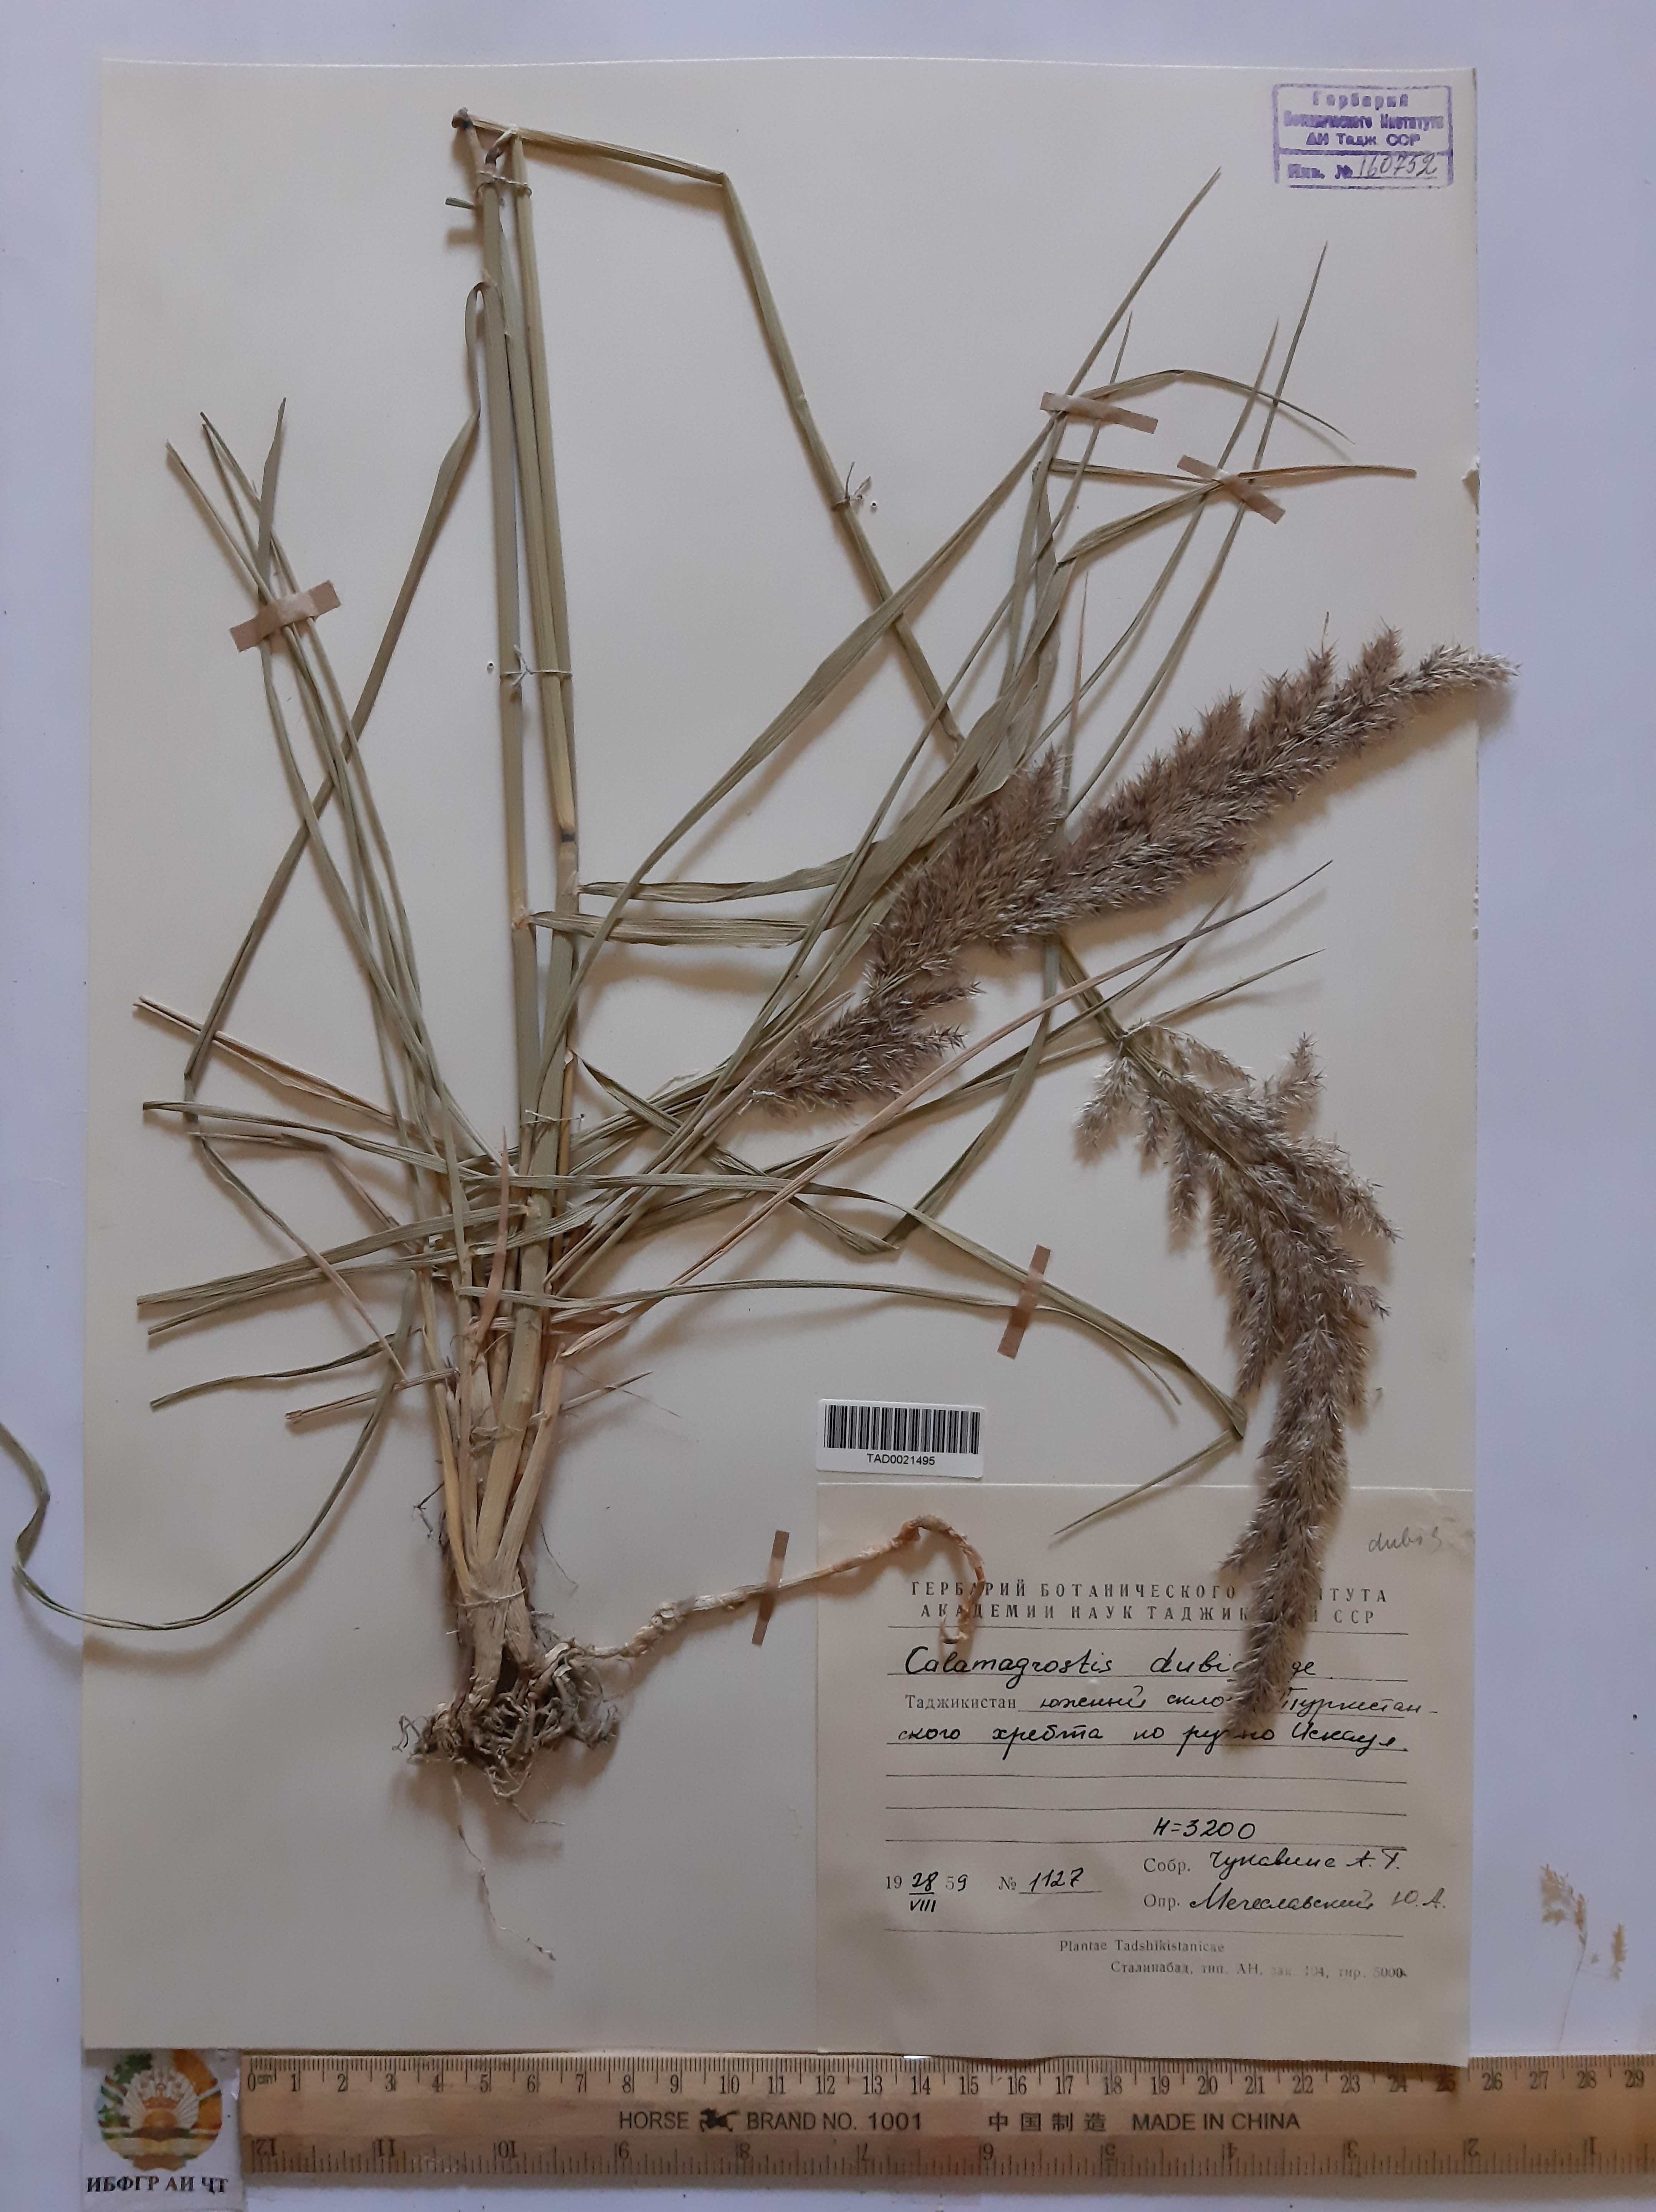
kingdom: Plantae
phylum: Tracheophyta
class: Liliopsida
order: Poales
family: Poaceae
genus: Calamagrostis
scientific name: Calamagrostis pseudophragmites
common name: Coastal small-reed
